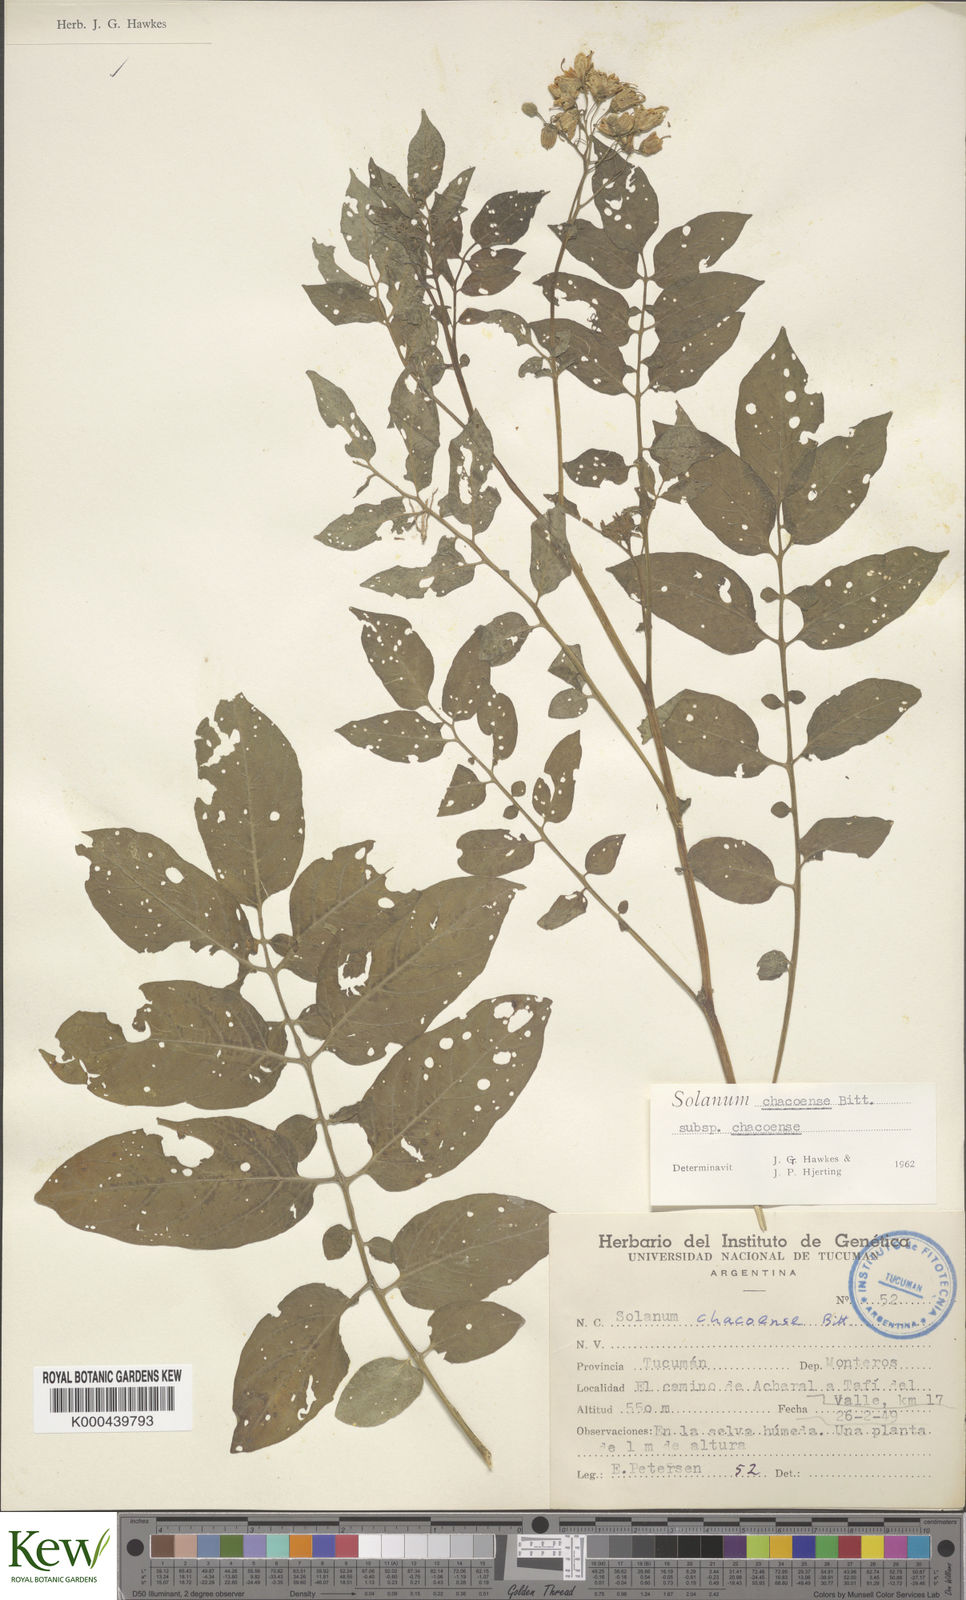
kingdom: Plantae
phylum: Tracheophyta
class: Magnoliopsida
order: Solanales
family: Solanaceae
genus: Solanum
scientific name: Solanum chacoense
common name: Chaco potato
